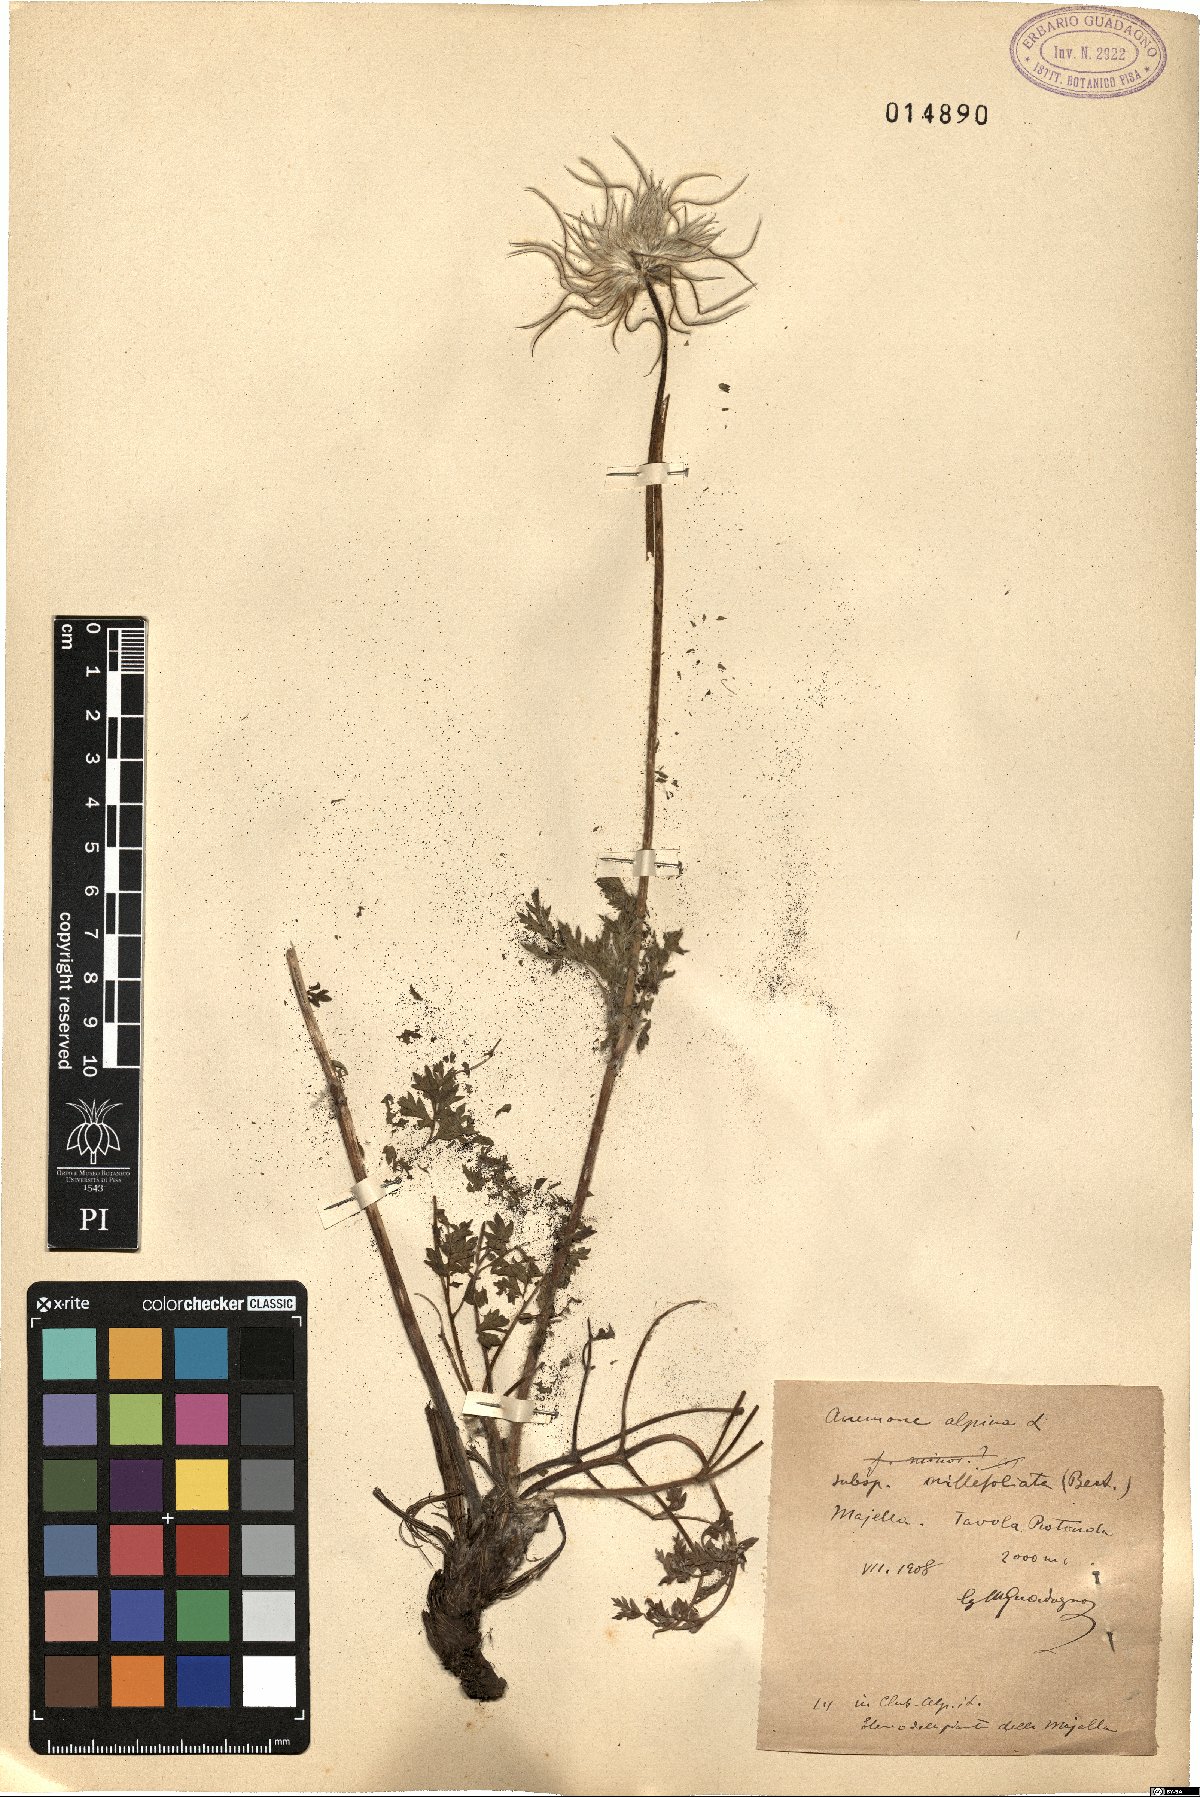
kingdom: Plantae
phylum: Tracheophyta
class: Magnoliopsida
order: Ranunculales
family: Ranunculaceae
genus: Pulsatilla
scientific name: Pulsatilla alpina
